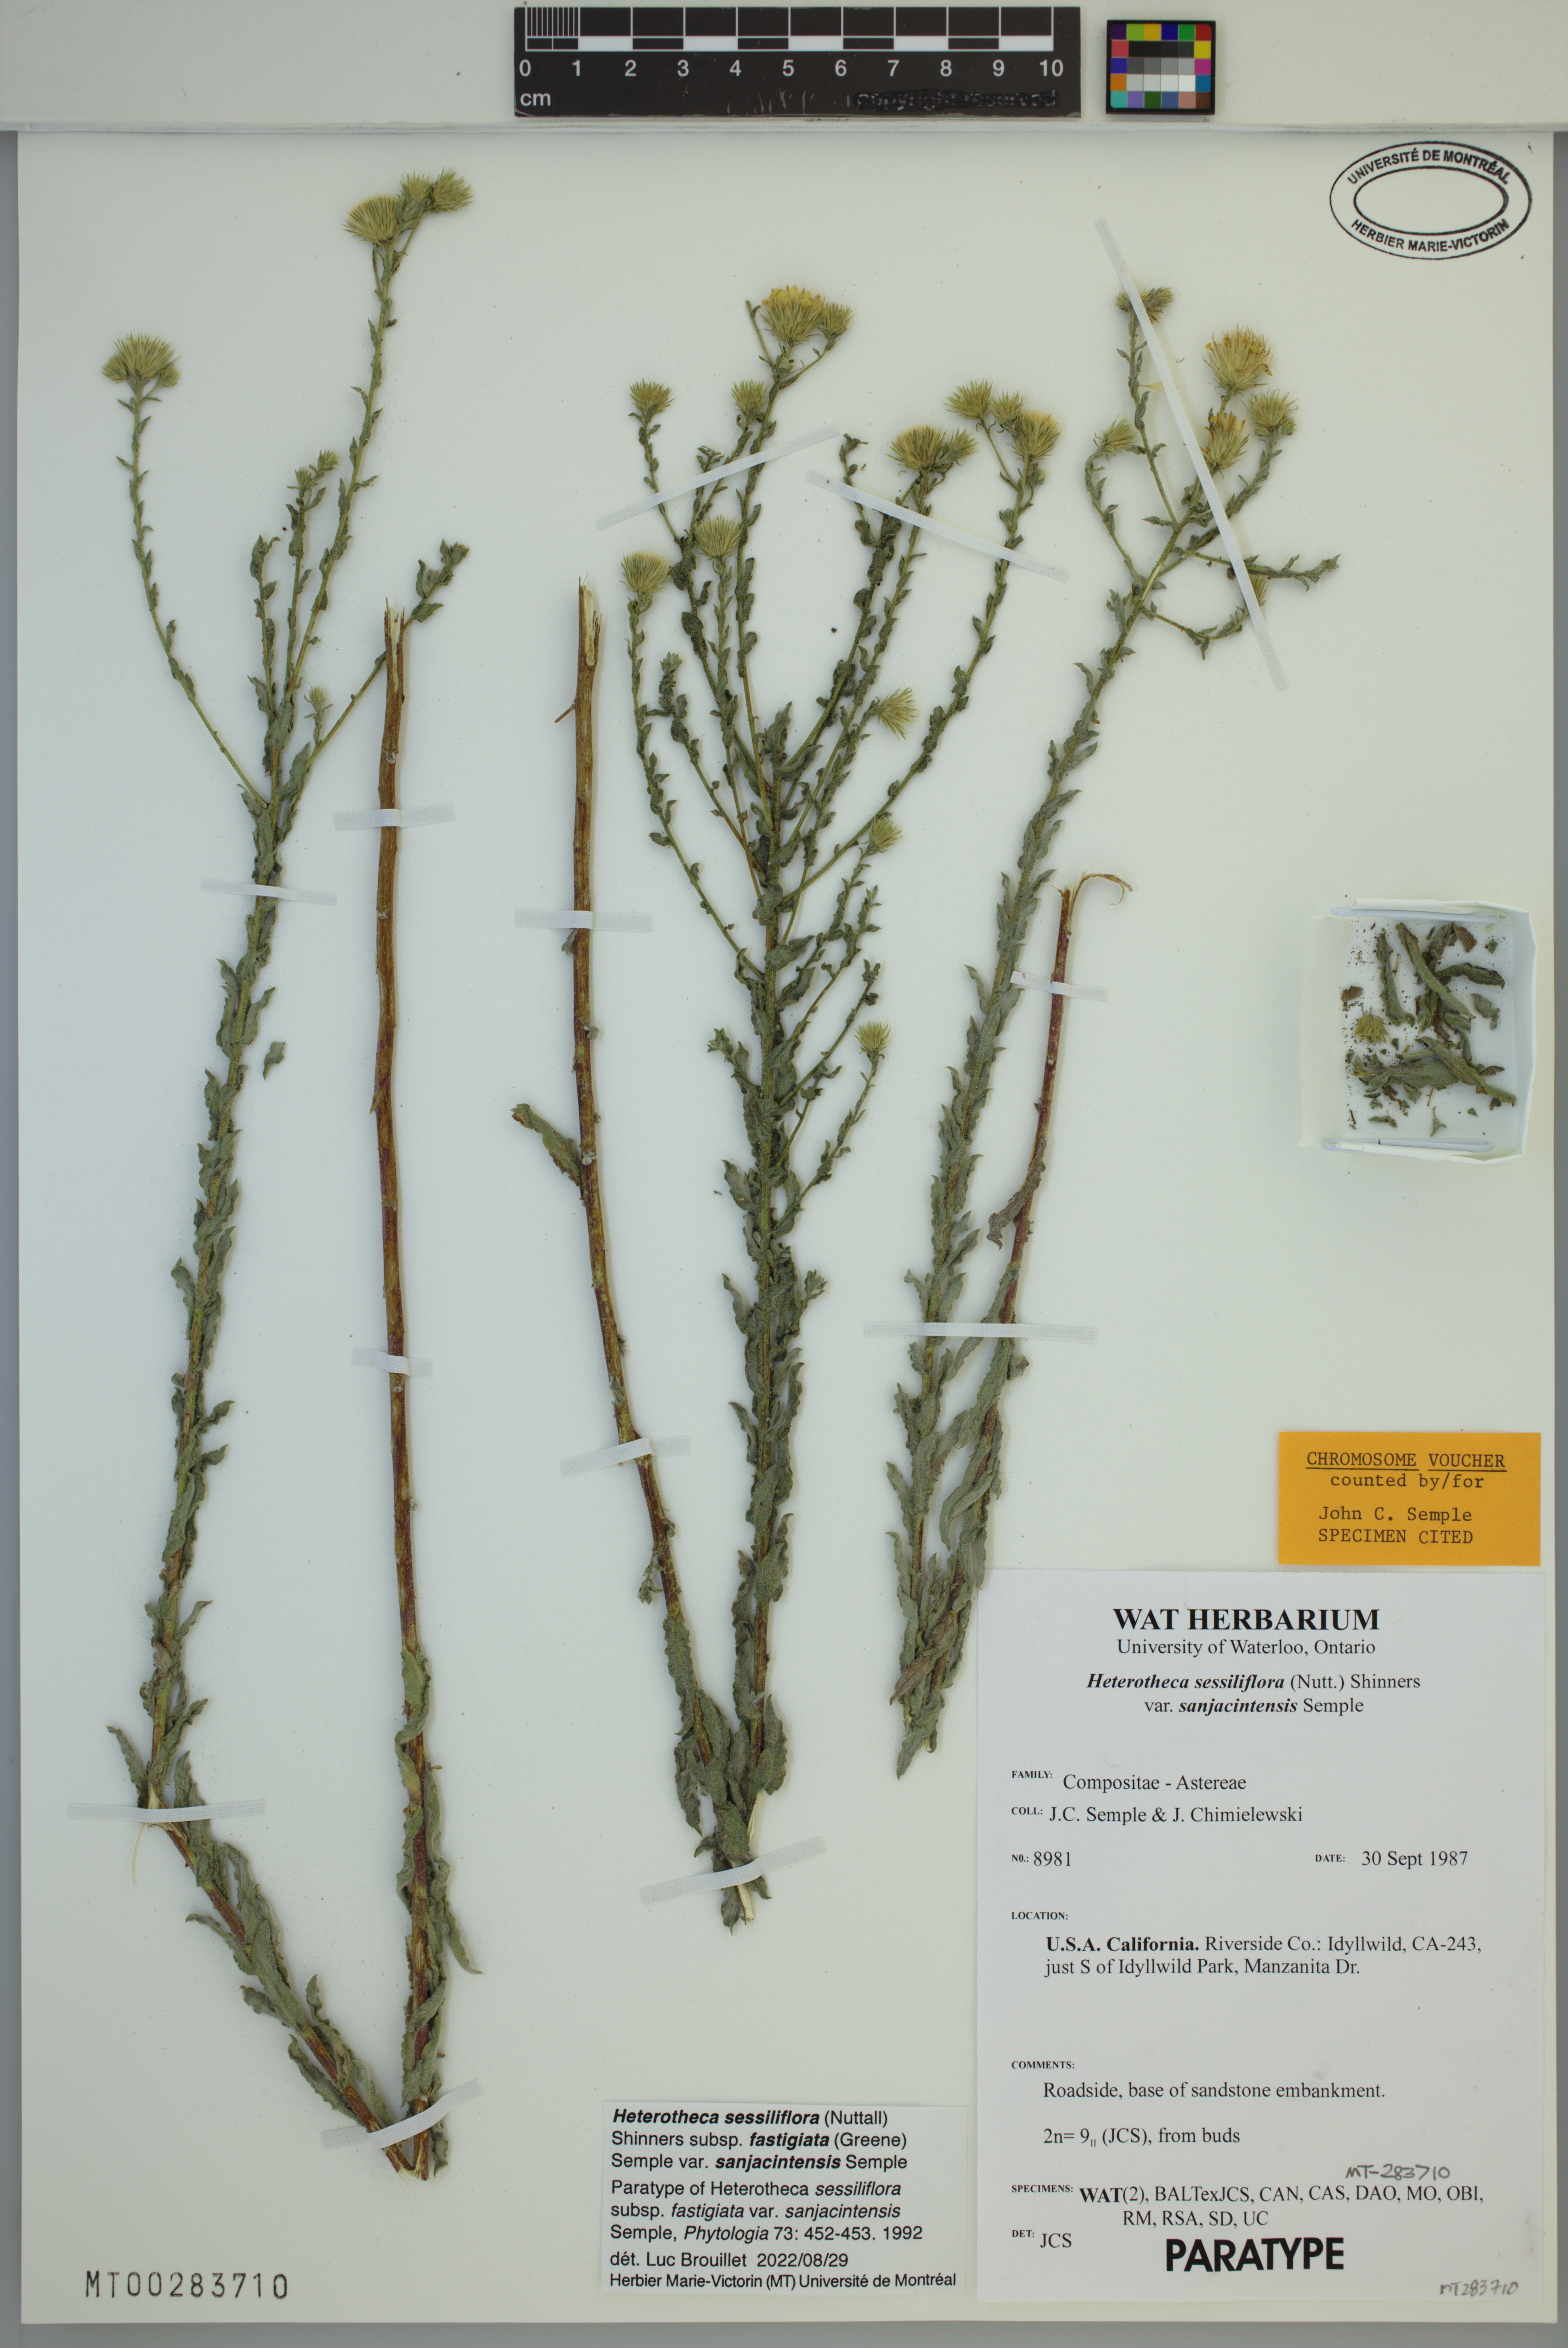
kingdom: Plantae
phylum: Tracheophyta
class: Magnoliopsida
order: Asterales
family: Asteraceae
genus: Heterotheca
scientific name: Heterotheca sessiliflora
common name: Sessile-flower golden-aster
